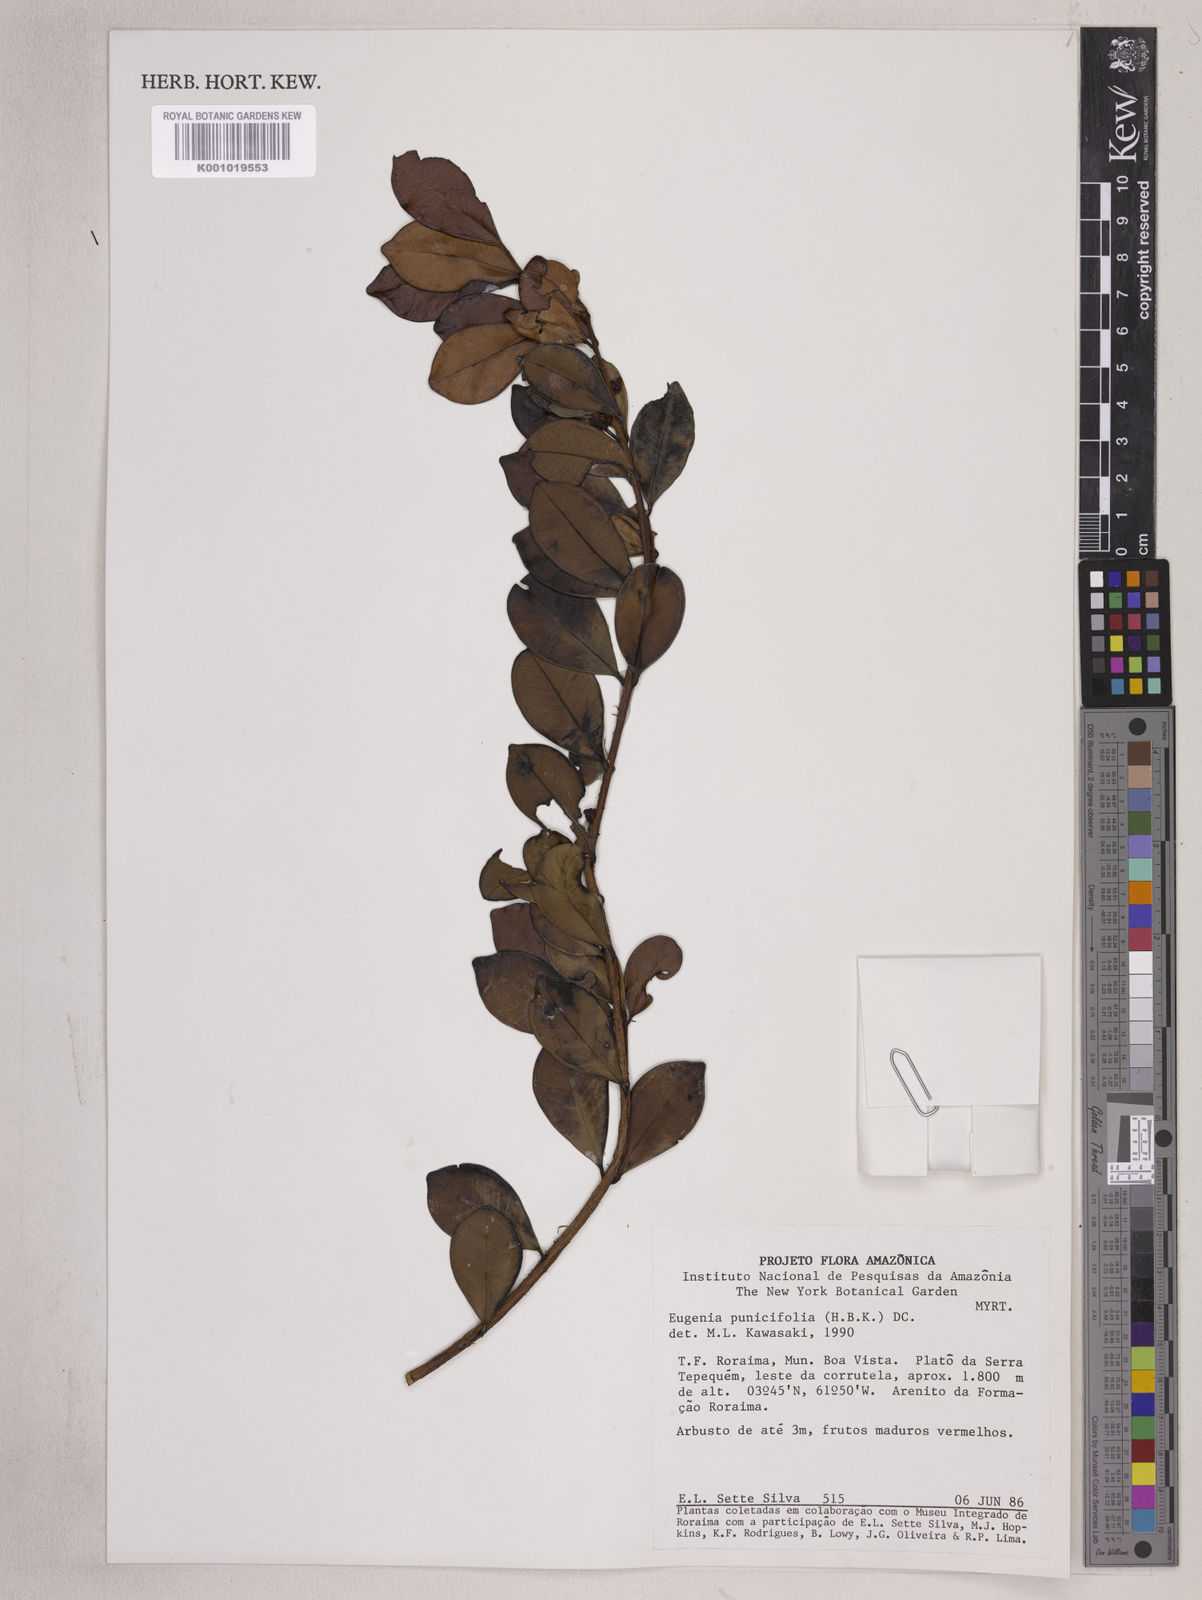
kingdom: Plantae
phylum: Tracheophyta
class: Magnoliopsida
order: Myrtales
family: Myrtaceae
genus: Eugenia
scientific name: Eugenia punicifolia
